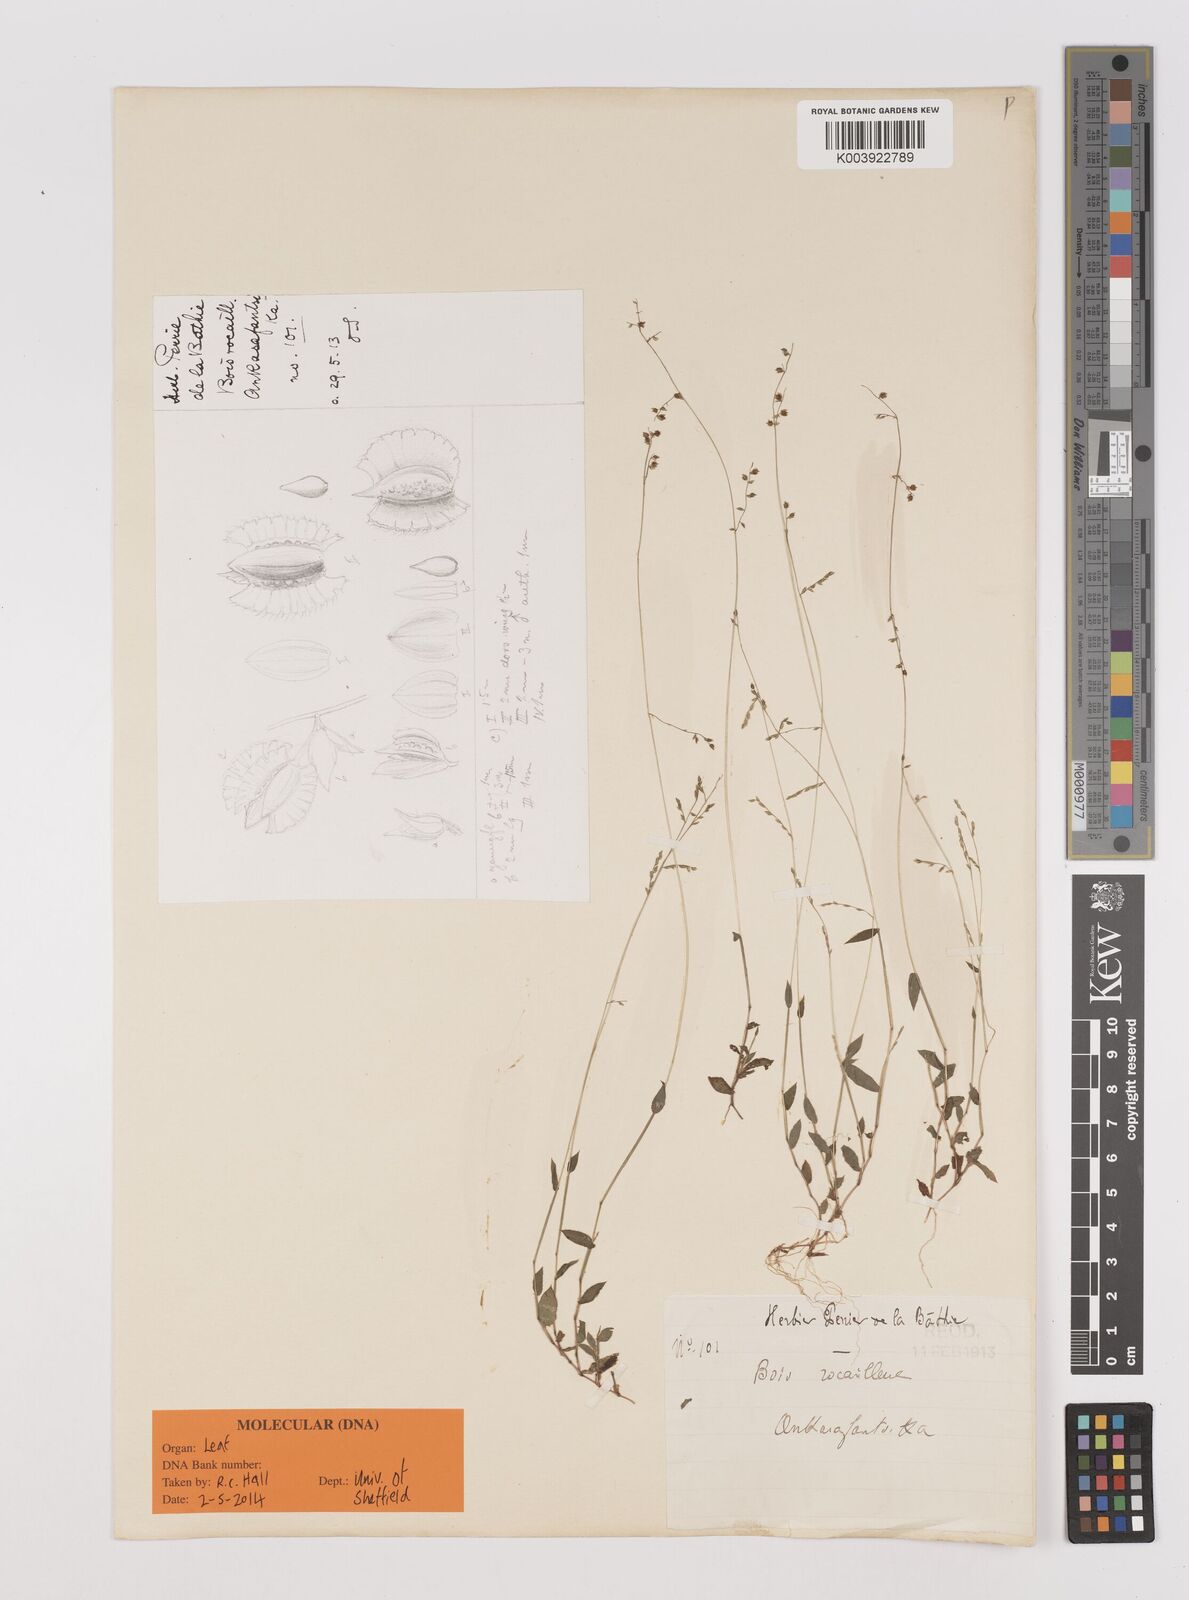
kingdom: Plantae
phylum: Tracheophyta
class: Liliopsida
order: Poales
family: Poaceae
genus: Pseudechinolaena
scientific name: Pseudechinolaena camusiana
